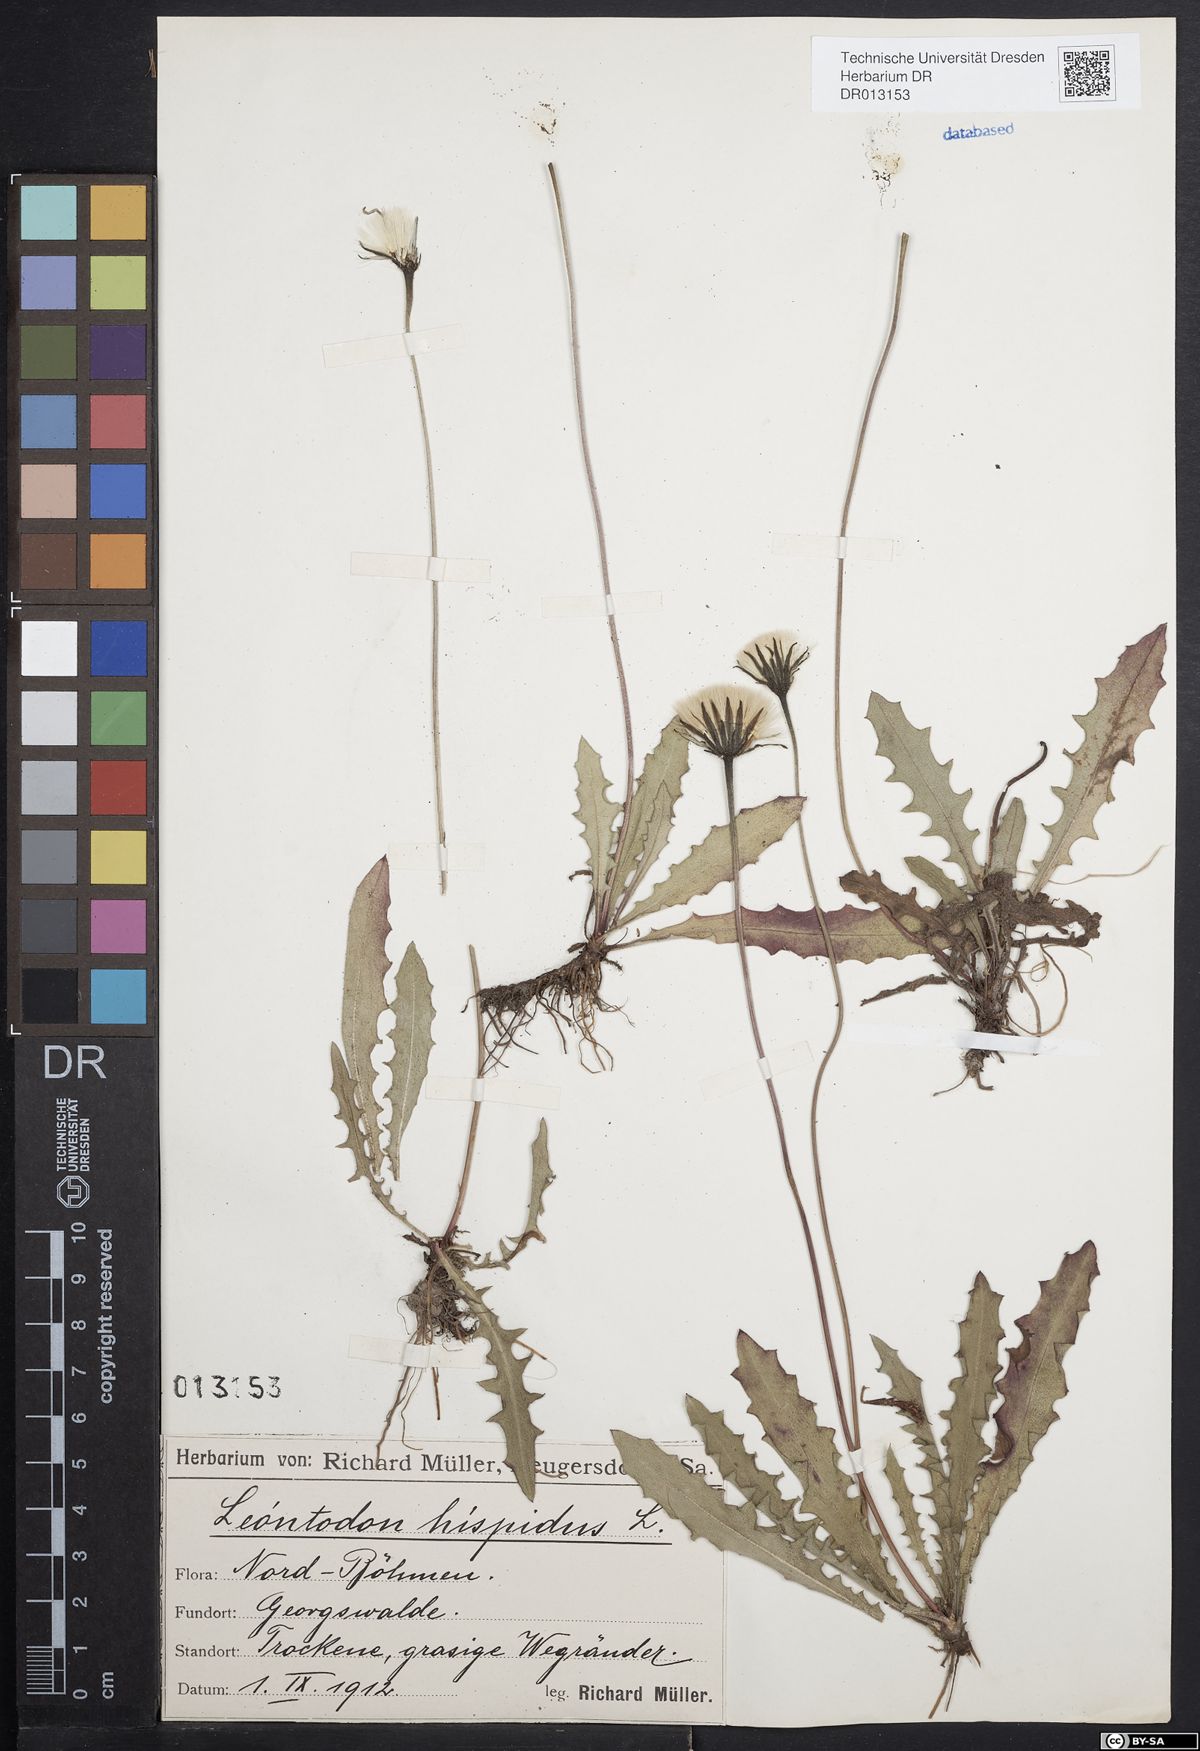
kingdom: Plantae
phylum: Tracheophyta
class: Magnoliopsida
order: Asterales
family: Asteraceae
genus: Leontodon
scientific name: Leontodon hispidus
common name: Rough hawkbit
